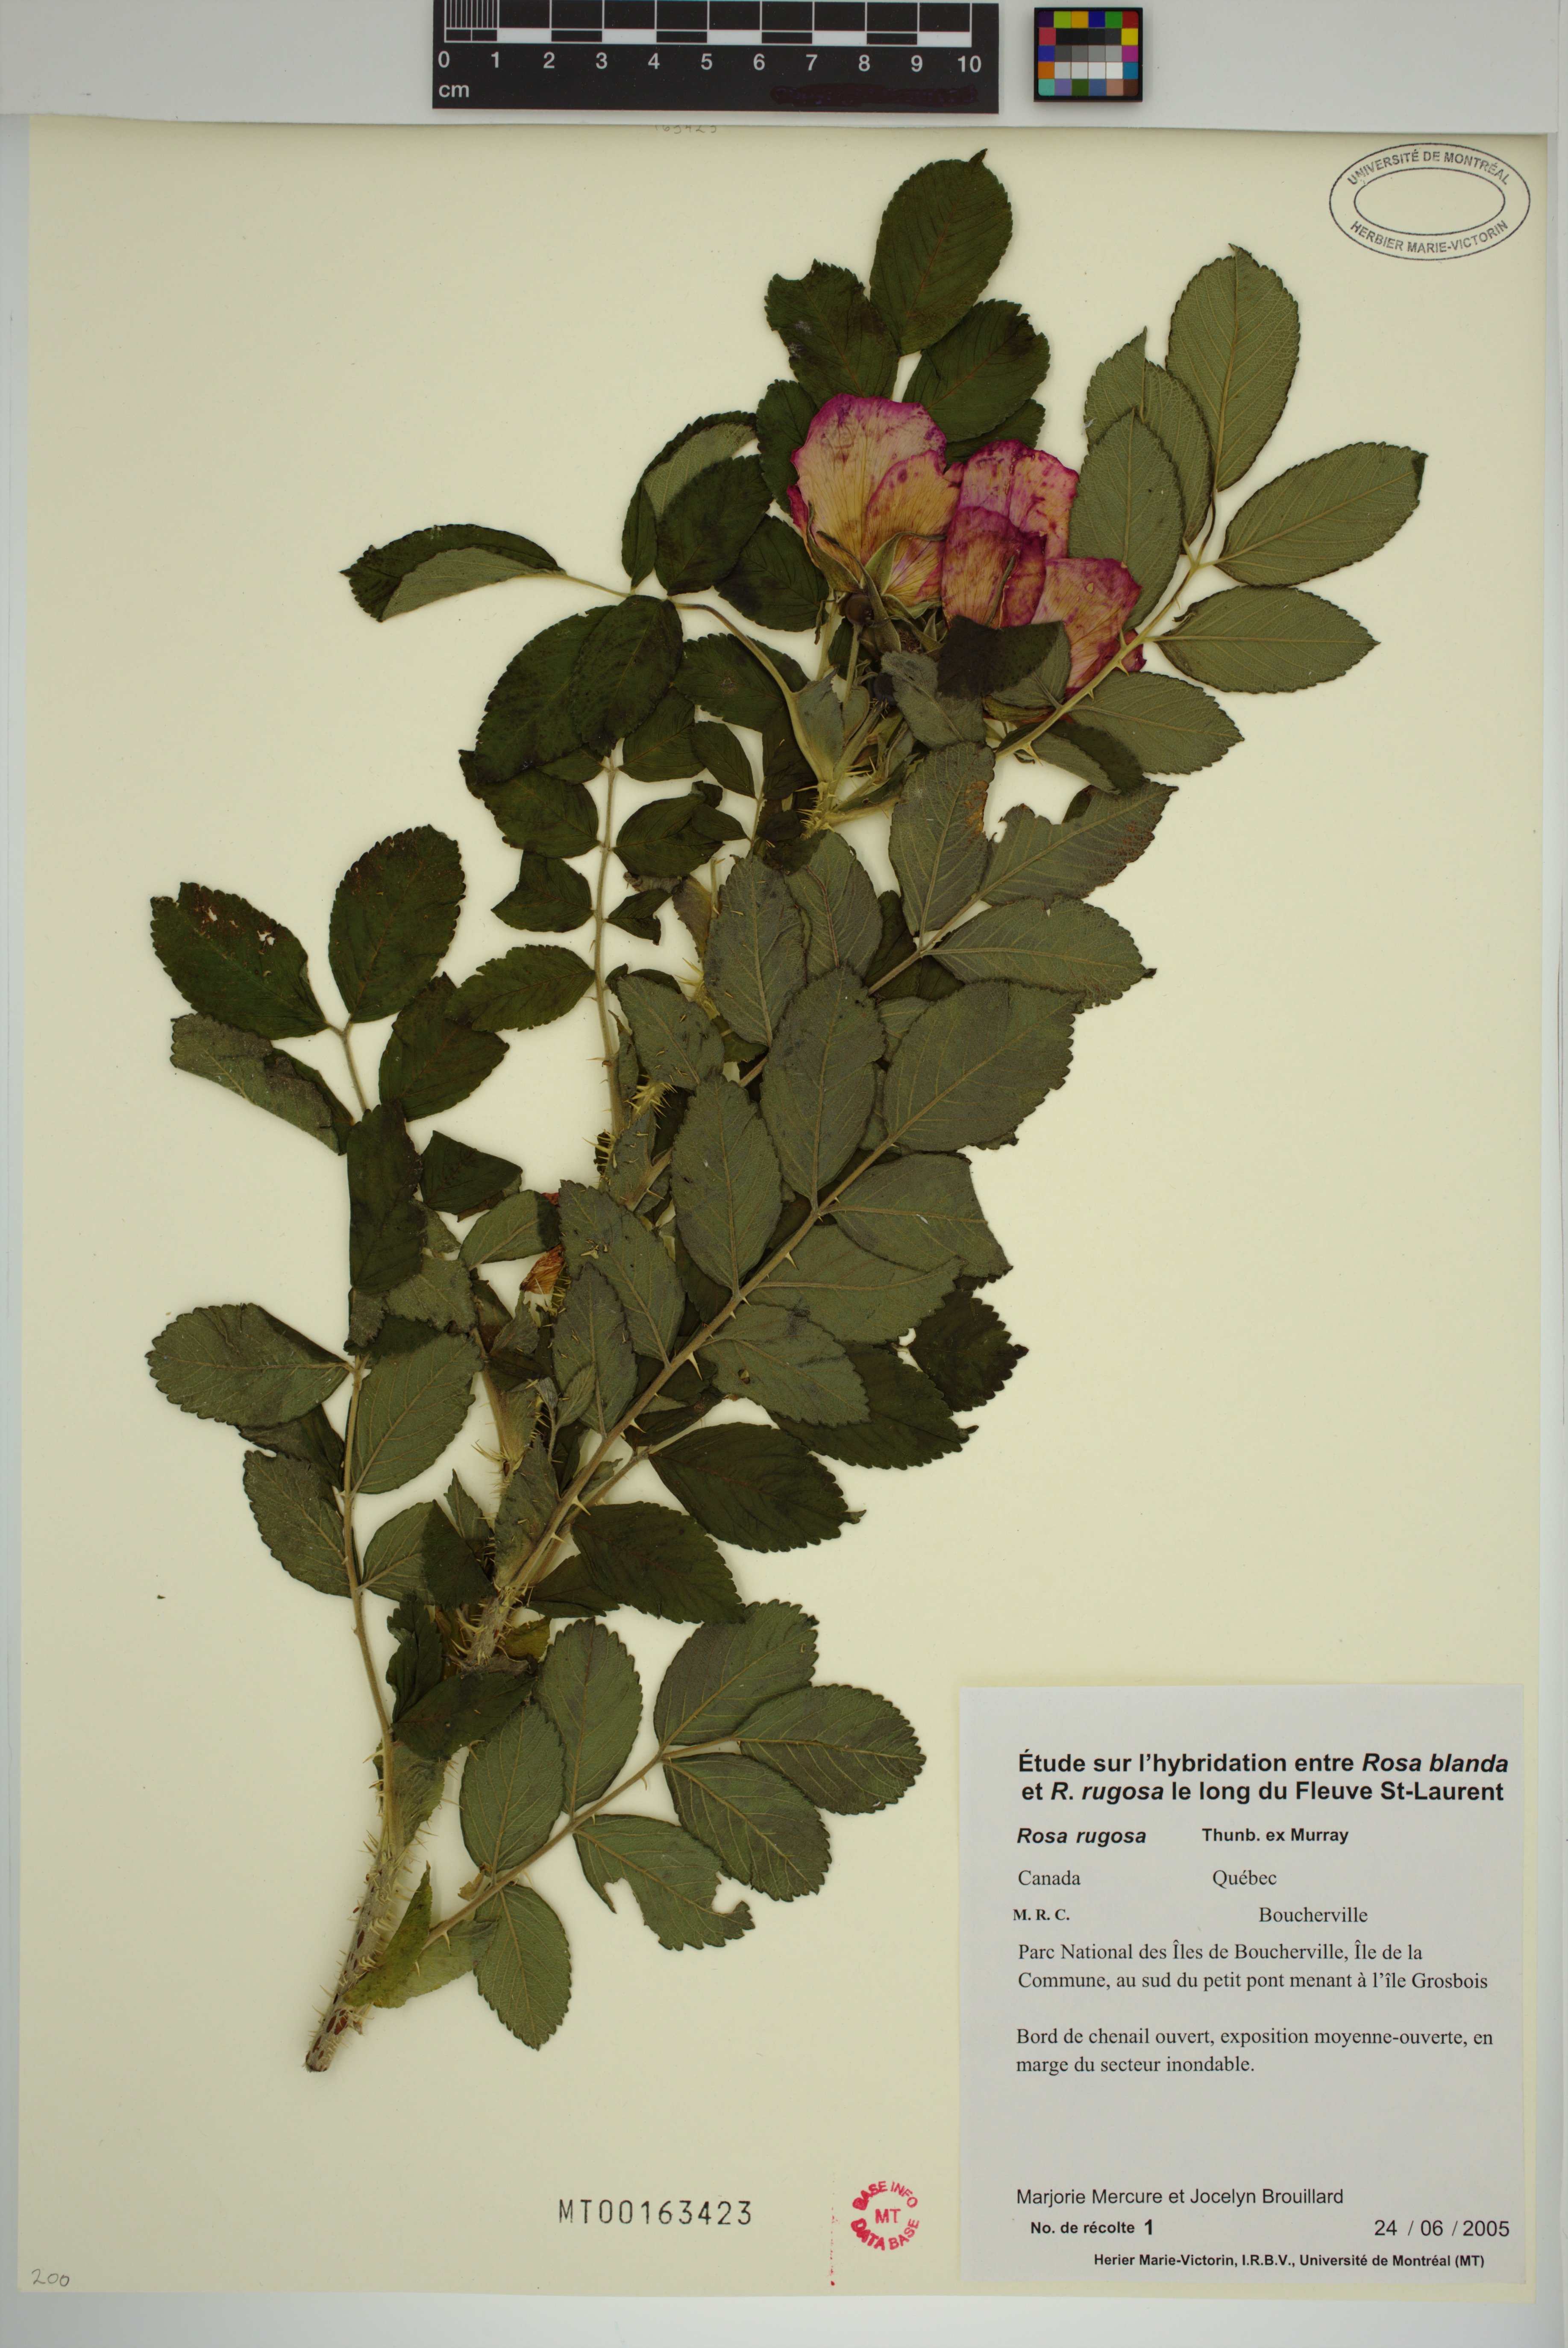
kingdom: Plantae
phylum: Tracheophyta
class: Magnoliopsida
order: Rosales
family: Rosaceae
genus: Rosa
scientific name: Rosa rugosa
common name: Japanese rose
